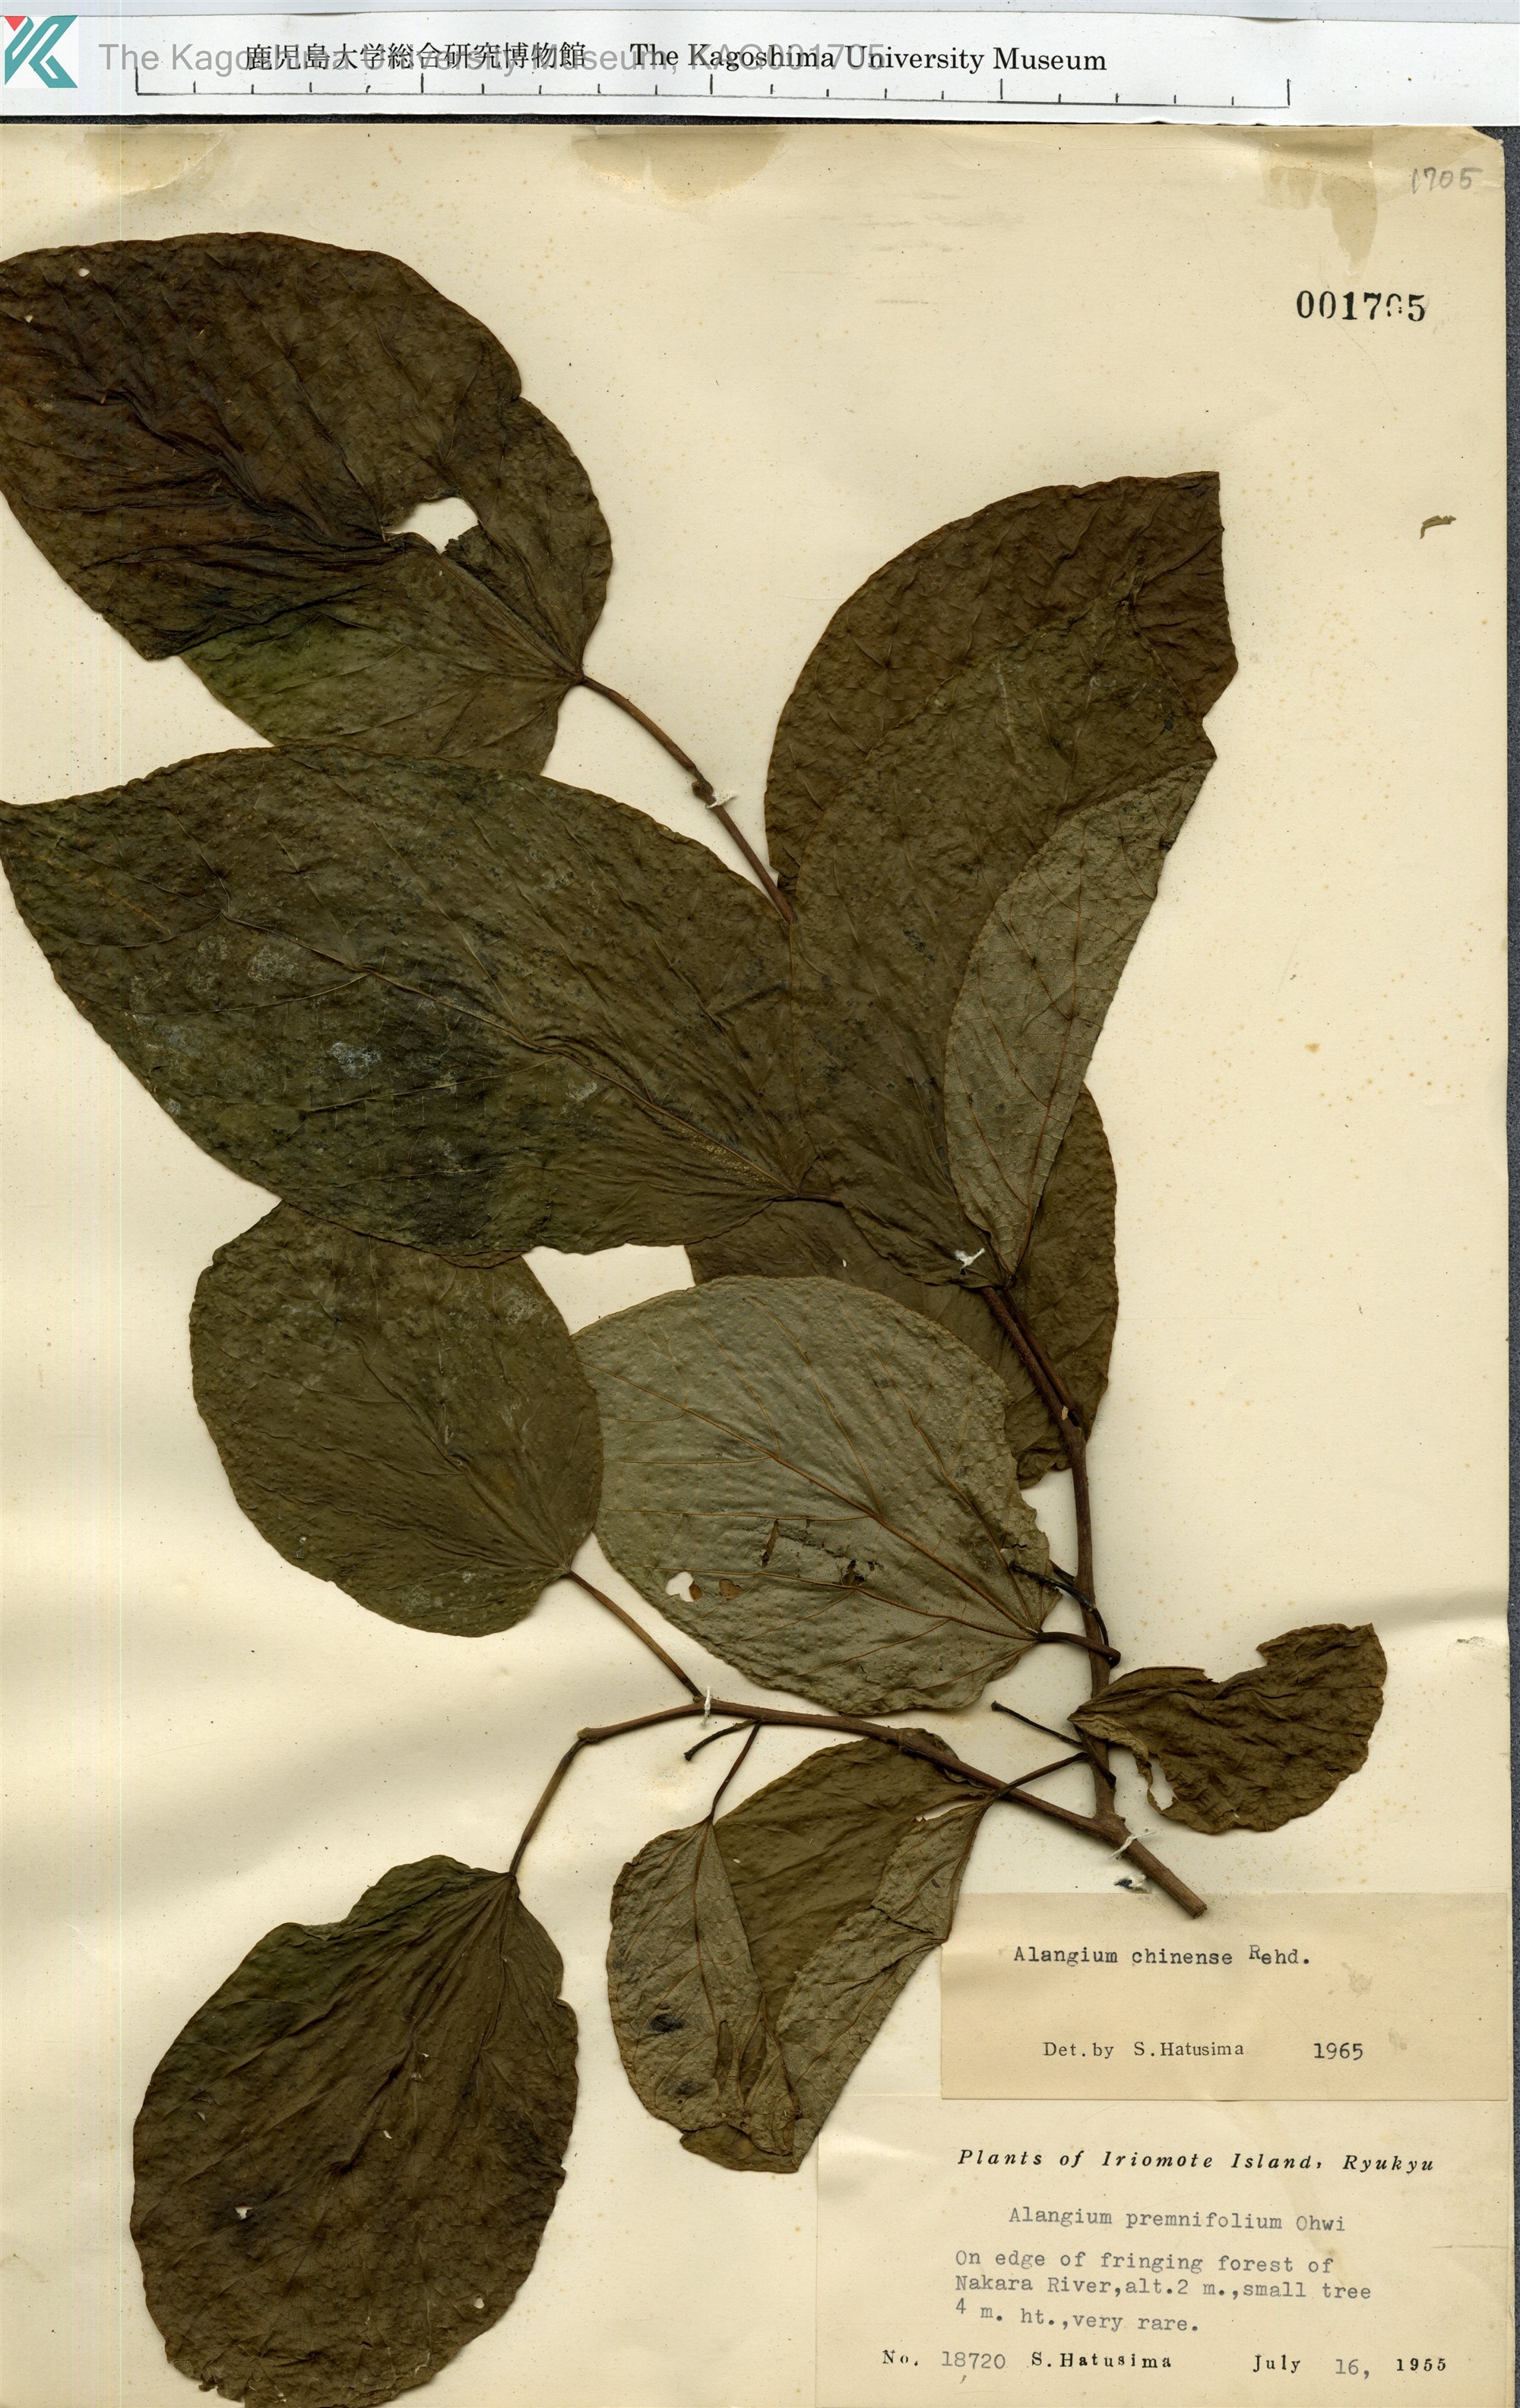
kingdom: Plantae
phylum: Tracheophyta
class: Magnoliopsida
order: Cornales
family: Cornaceae
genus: Alangium
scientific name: Alangium chinense
